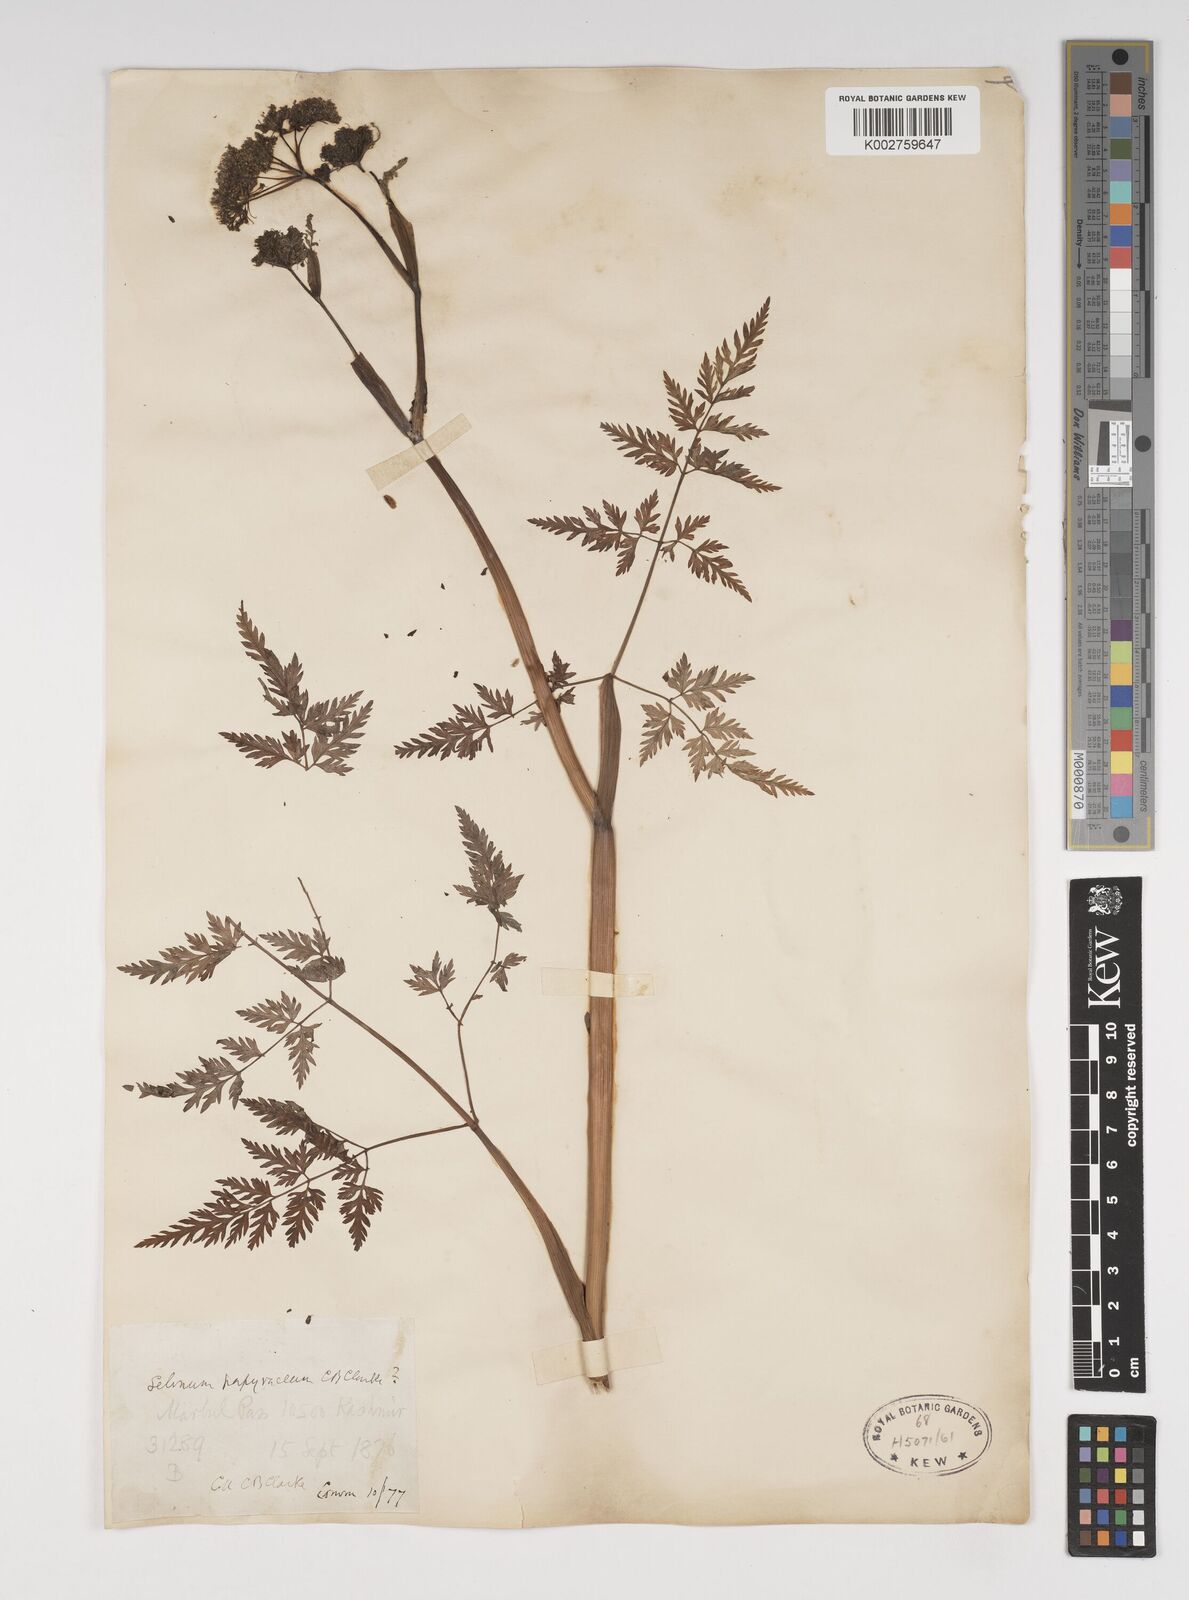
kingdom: Plantae
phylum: Tracheophyta
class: Magnoliopsida
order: Apiales
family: Apiaceae
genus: Conioselinum
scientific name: Conioselinum tataricum
